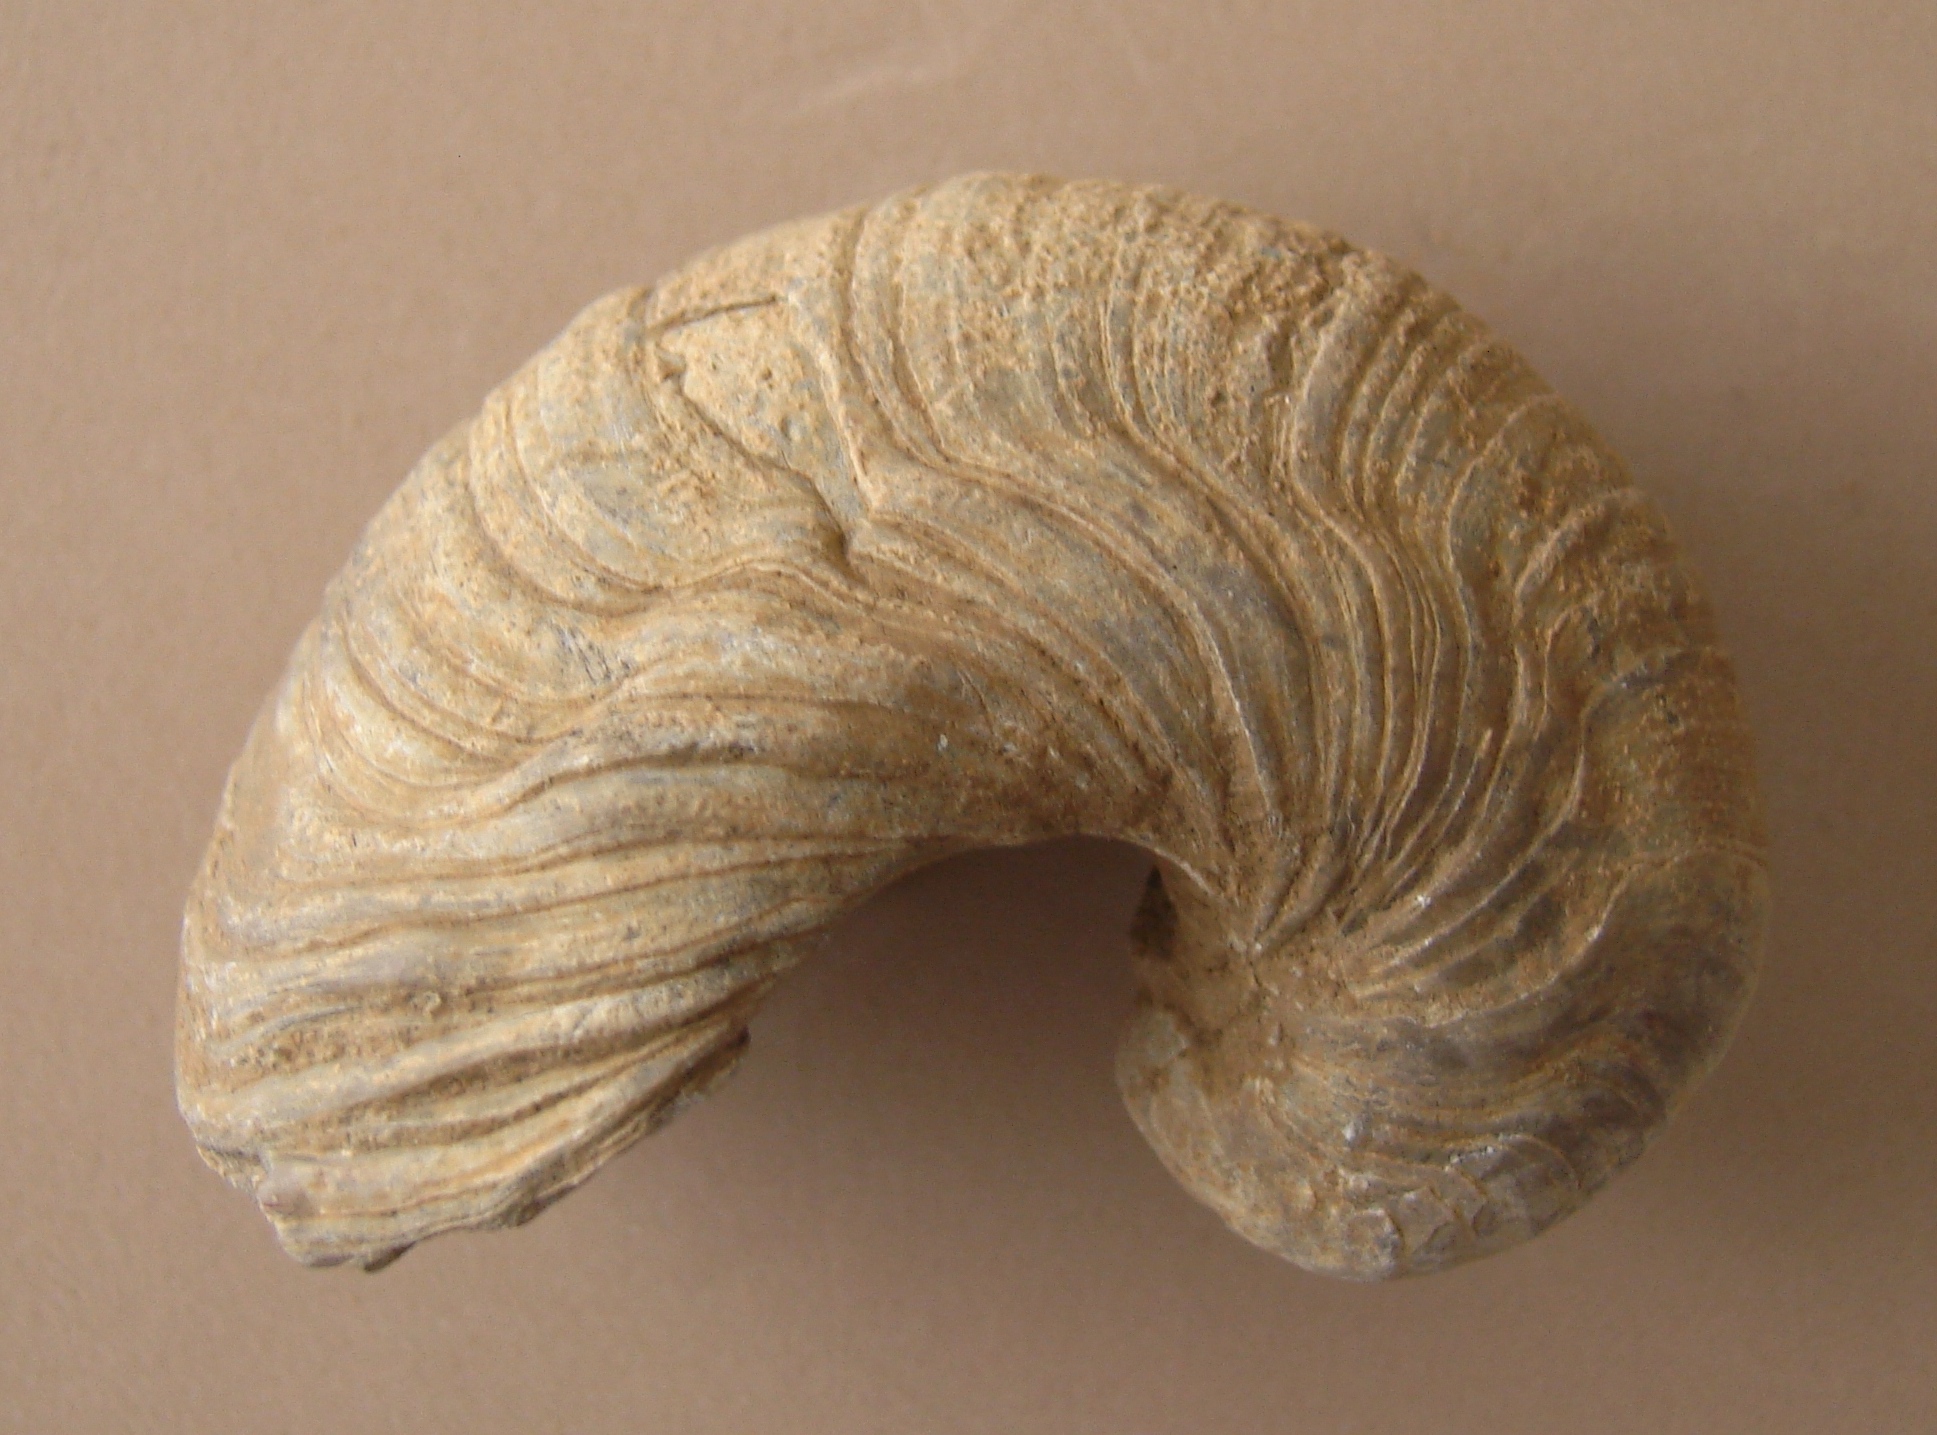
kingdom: Animalia
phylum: Mollusca
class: Bivalvia
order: Ostreida
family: Gryphaeidae
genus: Gryphaea
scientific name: Gryphaea arcuata
